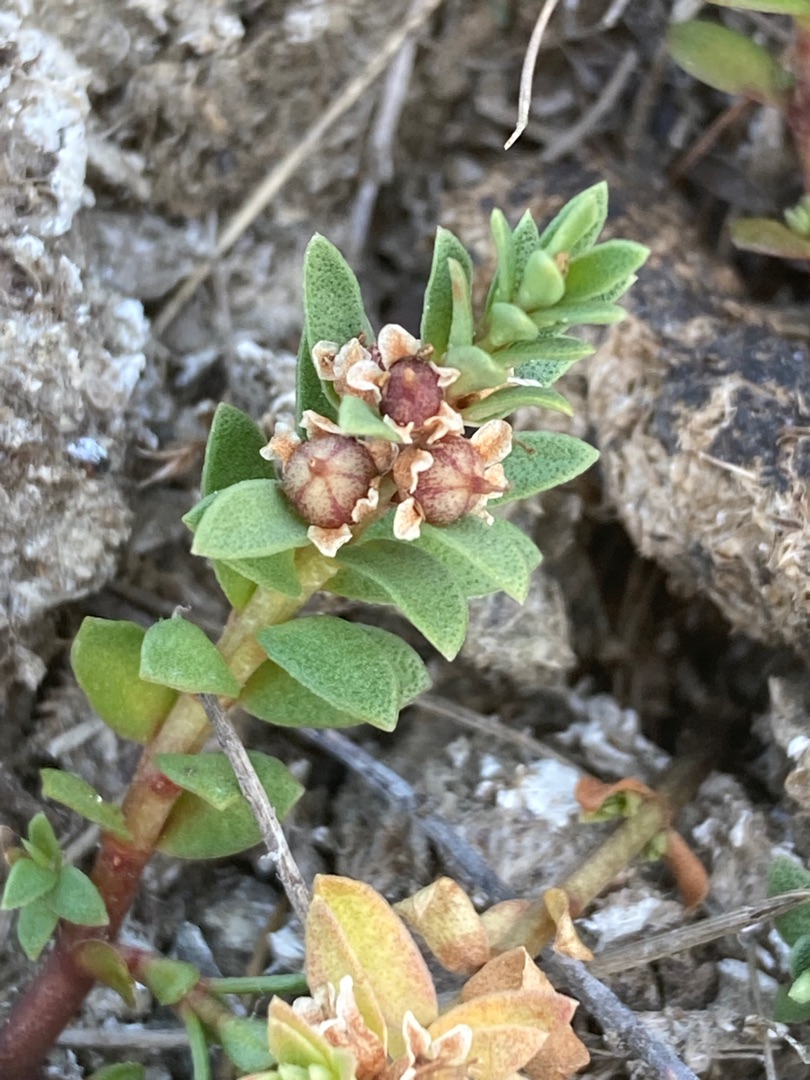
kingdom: Plantae
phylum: Tracheophyta
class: Magnoliopsida
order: Ericales
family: Primulaceae
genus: Lysimachia
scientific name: Lysimachia maritima
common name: Sandkryb
